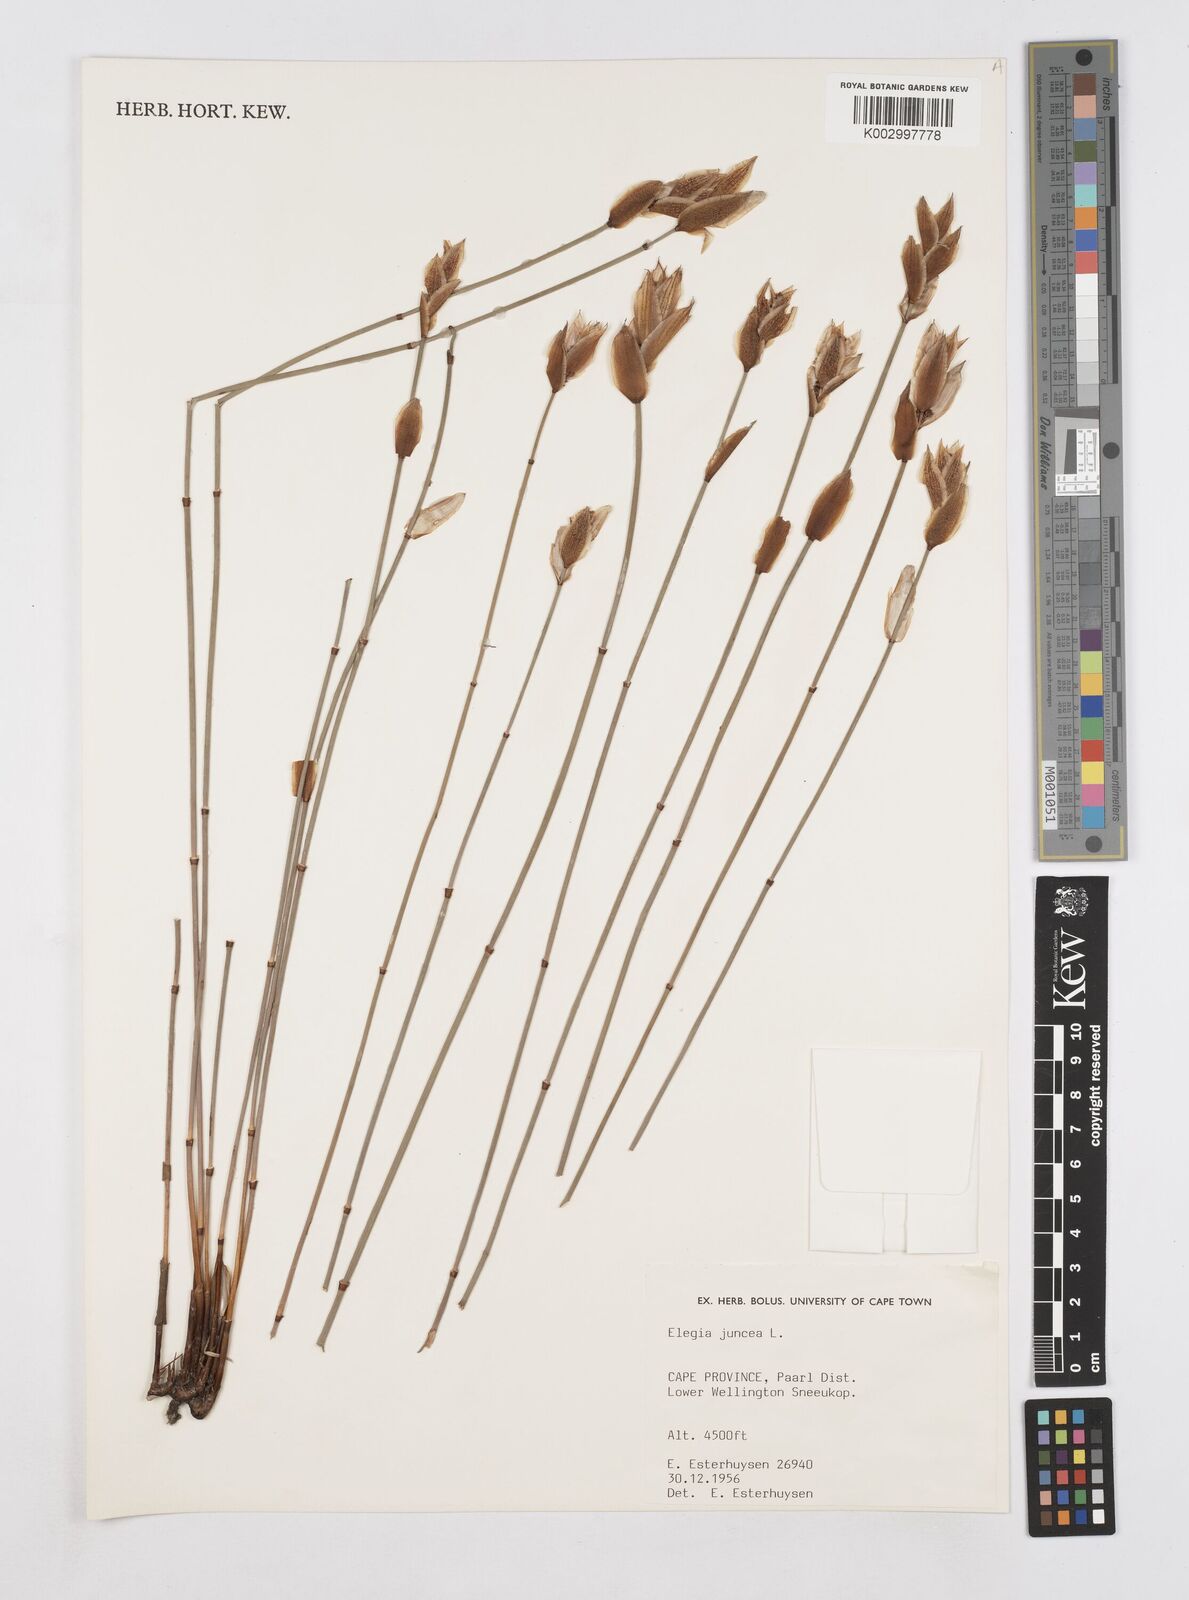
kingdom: Plantae
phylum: Tracheophyta
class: Liliopsida
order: Poales
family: Restionaceae
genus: Elegia
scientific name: Elegia juncea
